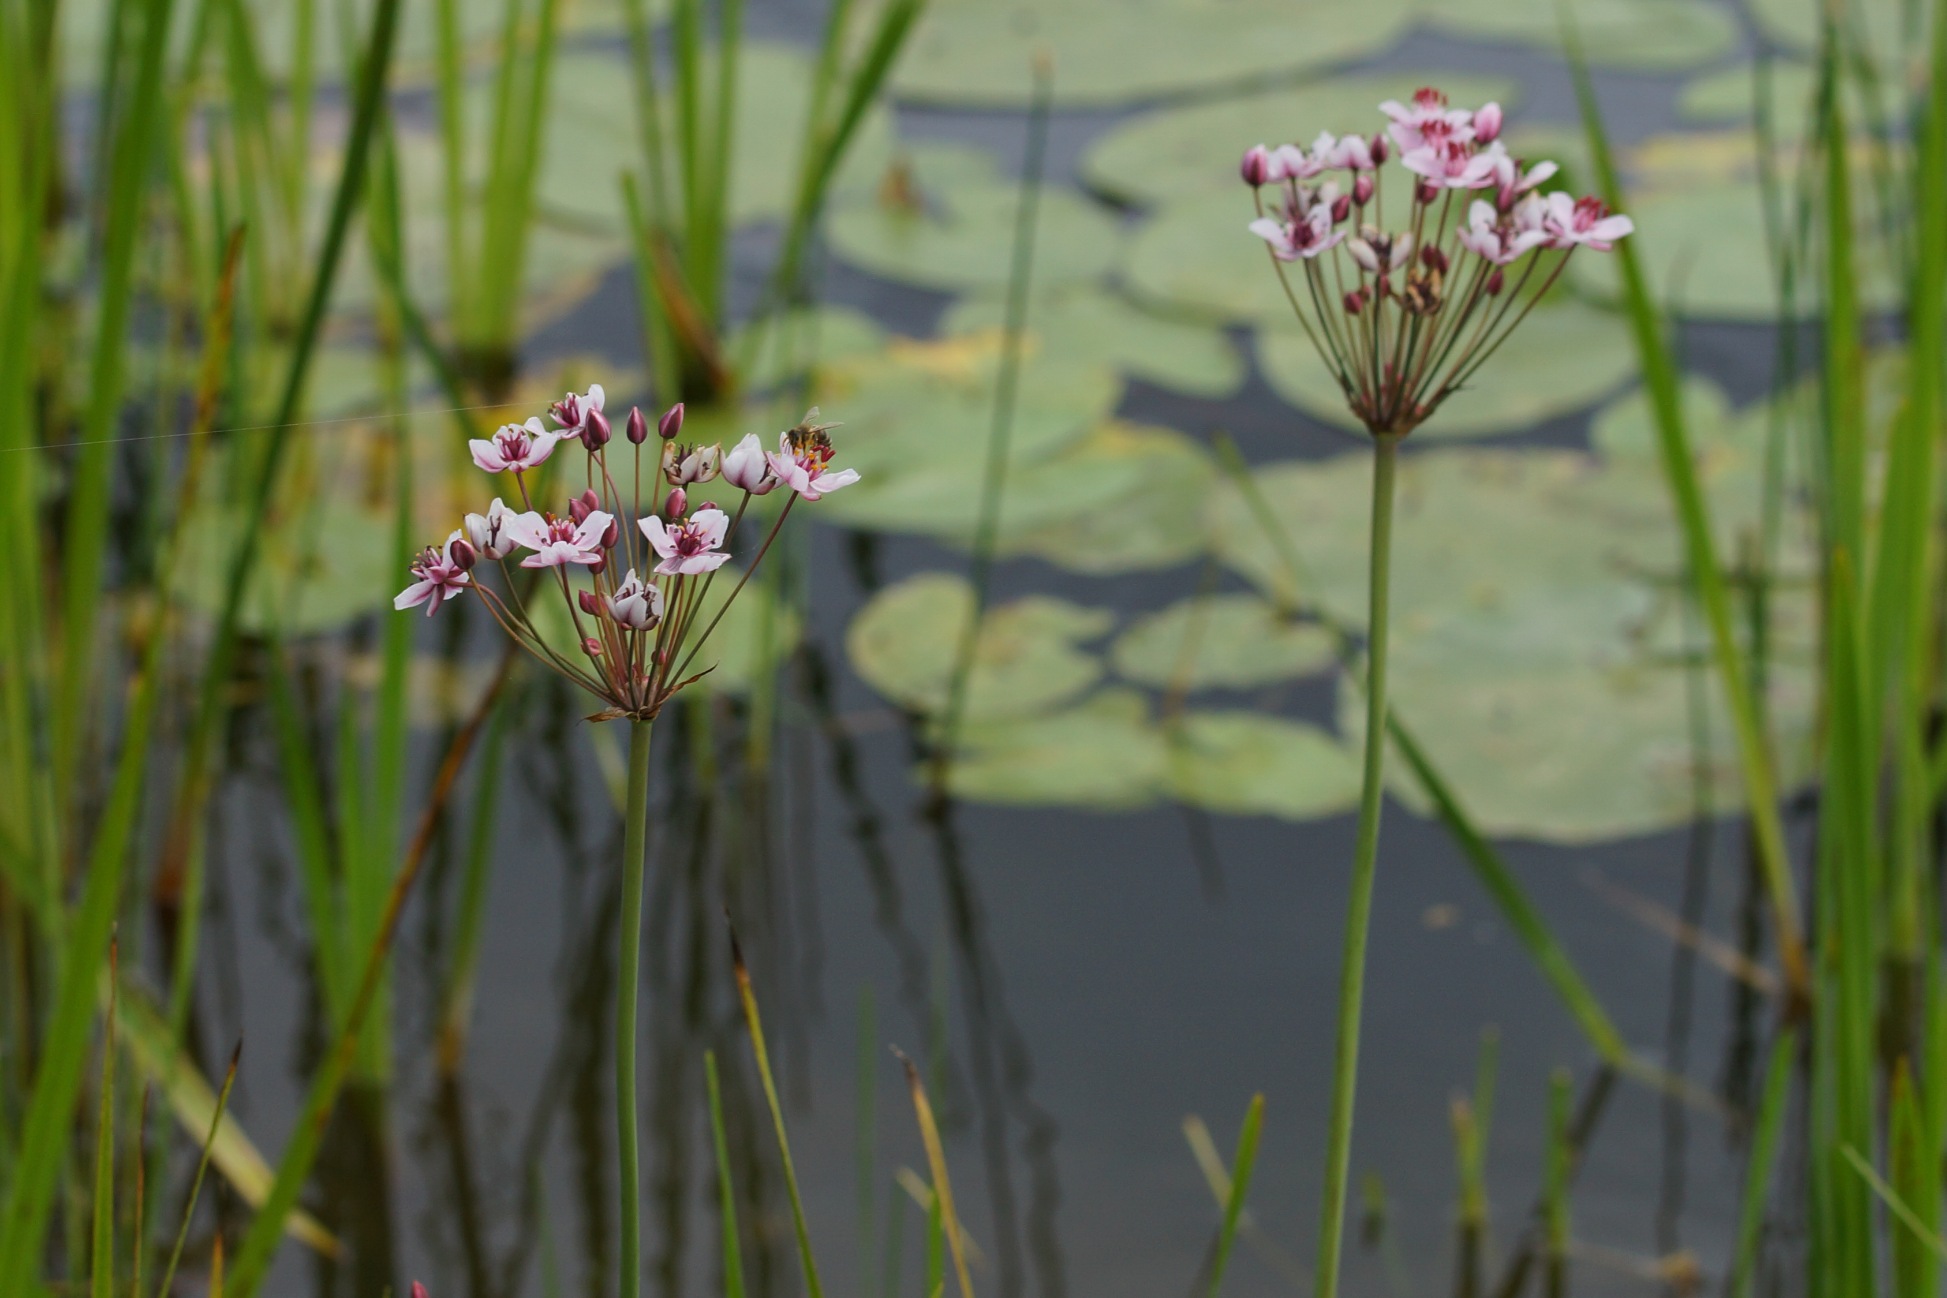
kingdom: Plantae
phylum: Tracheophyta
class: Liliopsida
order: Alismatales
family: Butomaceae
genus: Butomus
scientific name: Butomus umbellatus
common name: Brudelys
